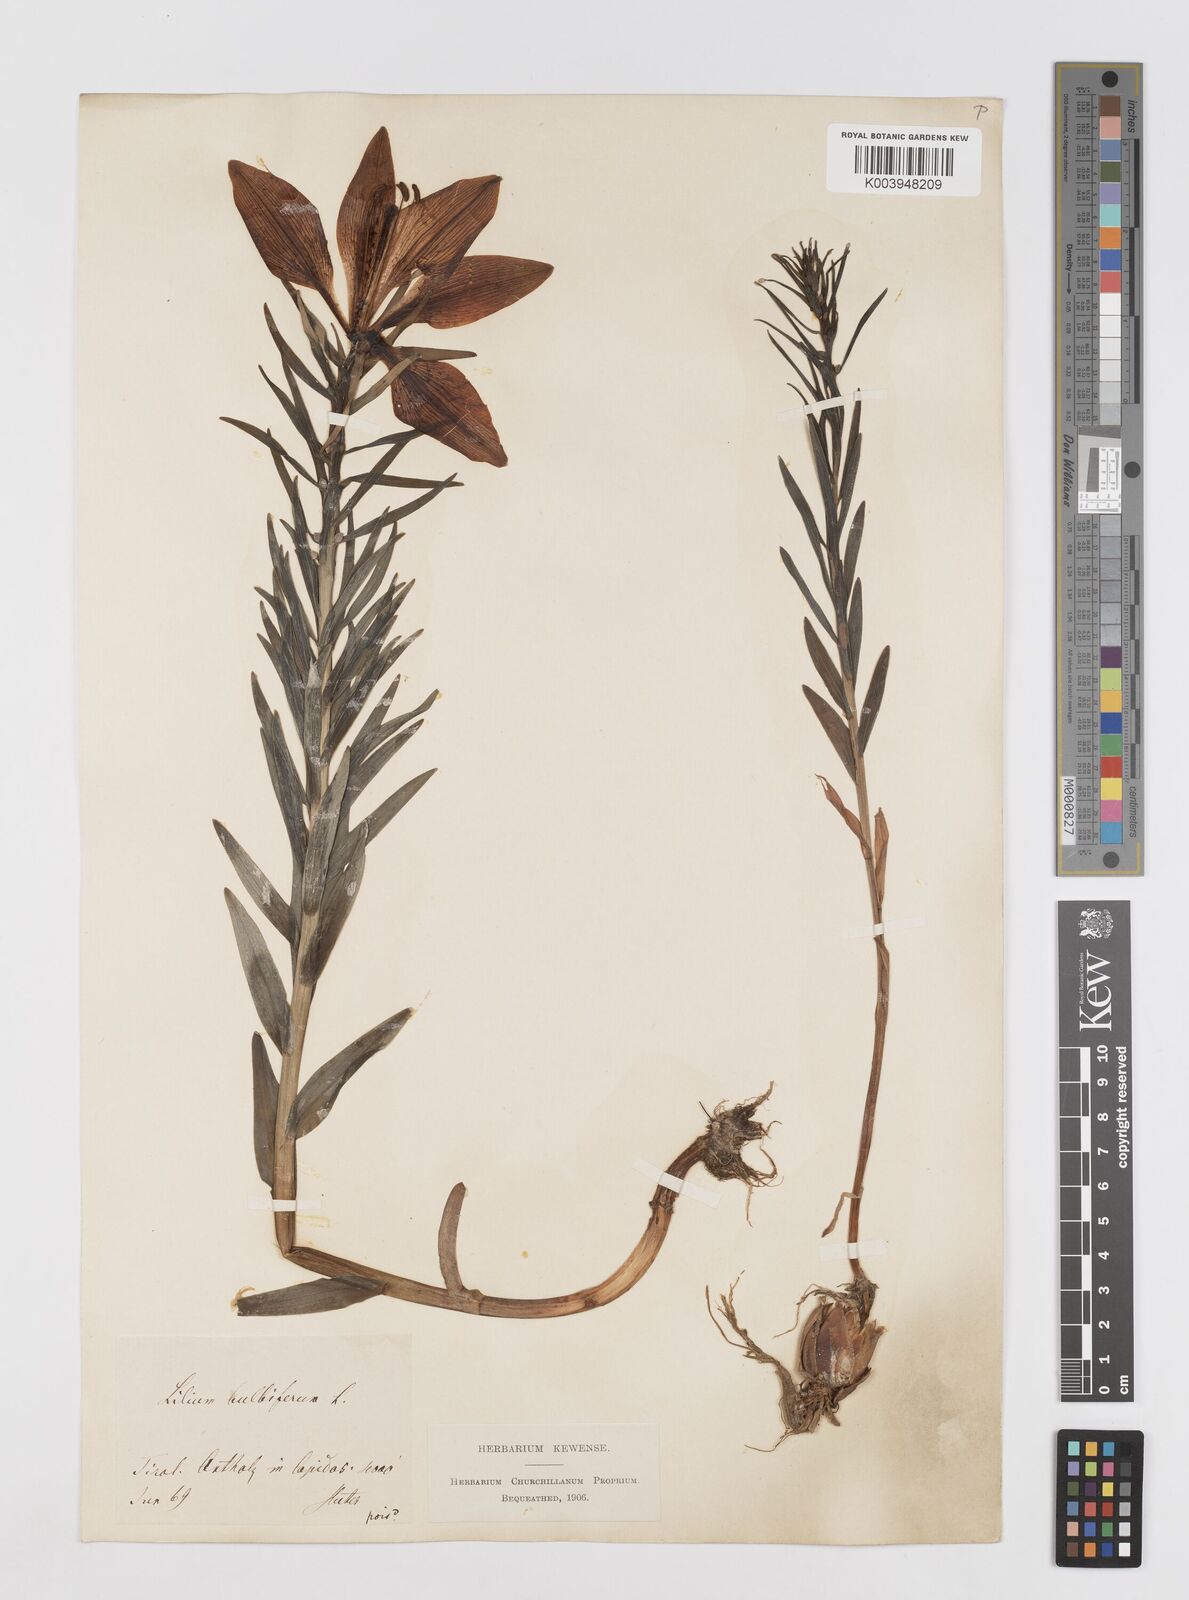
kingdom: Plantae
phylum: Tracheophyta
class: Liliopsida
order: Liliales
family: Liliaceae
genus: Lilium
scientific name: Lilium bulbiferum
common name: Orange lily
